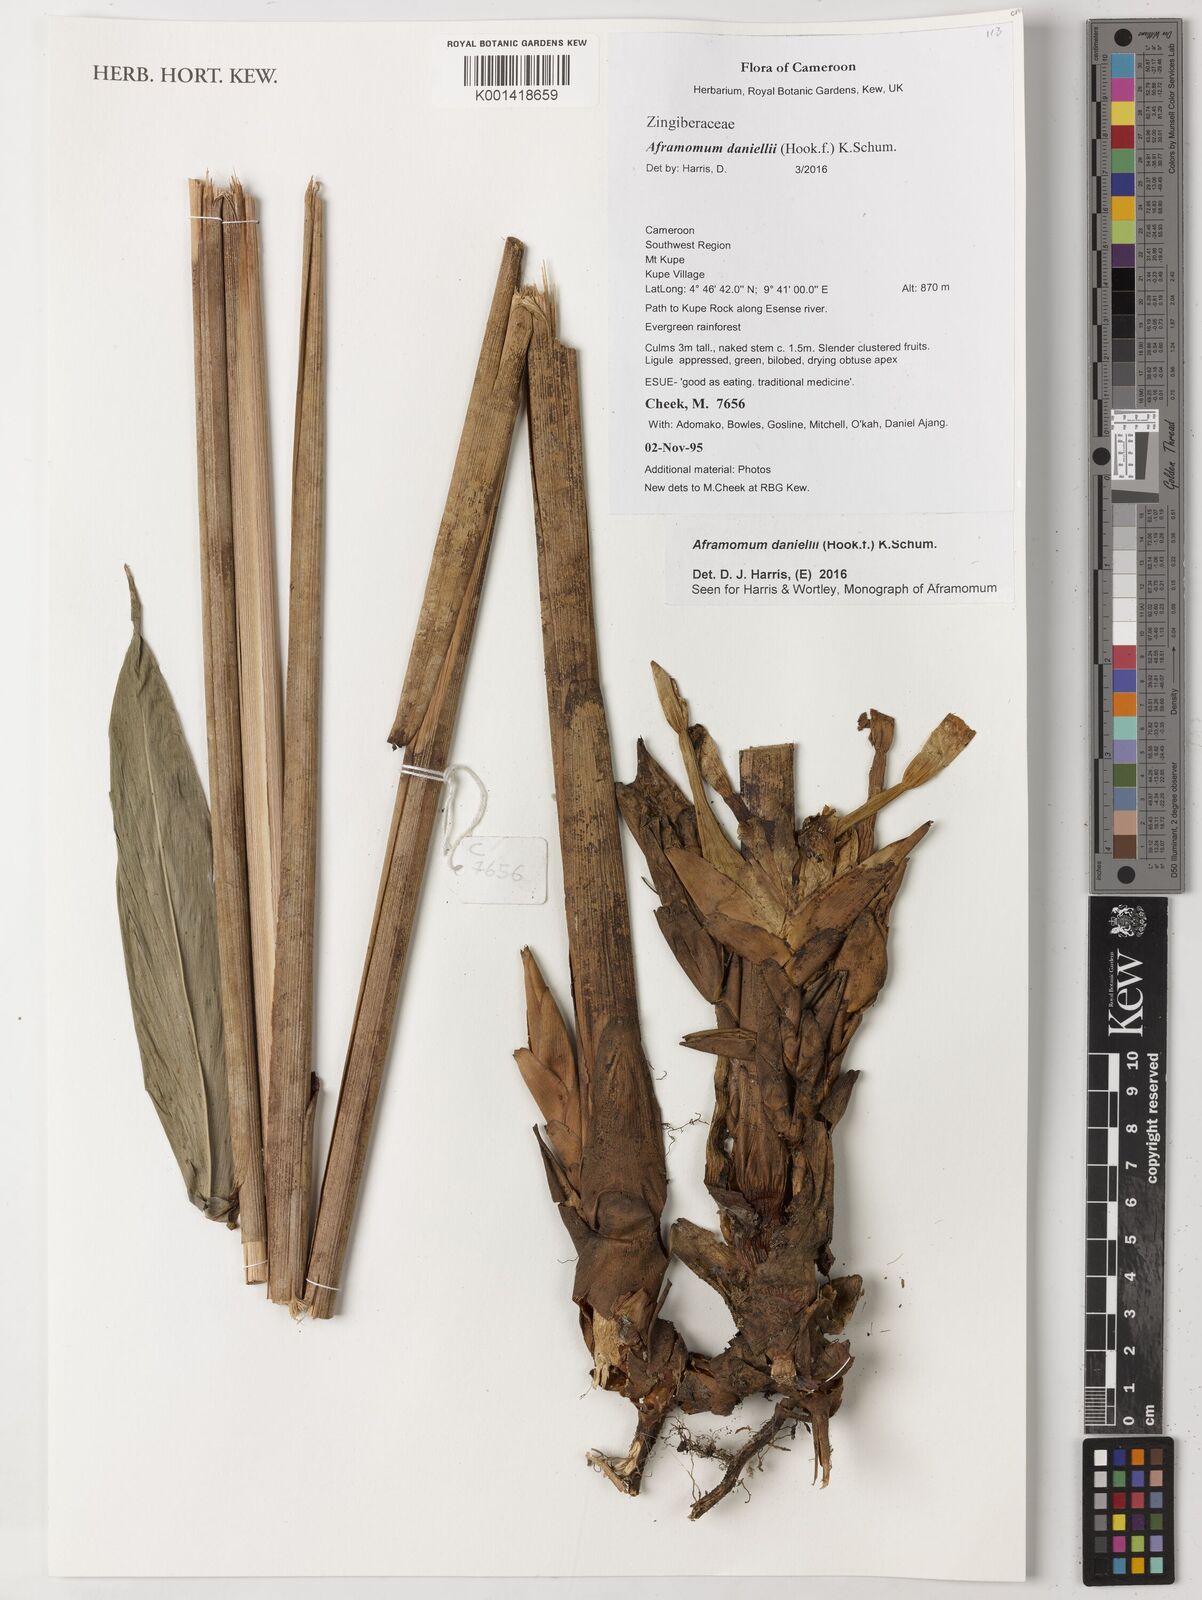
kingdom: Plantae
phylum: Tracheophyta
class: Liliopsida
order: Zingiberales
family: Zingiberaceae
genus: Aframomum
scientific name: Aframomum daniellii
